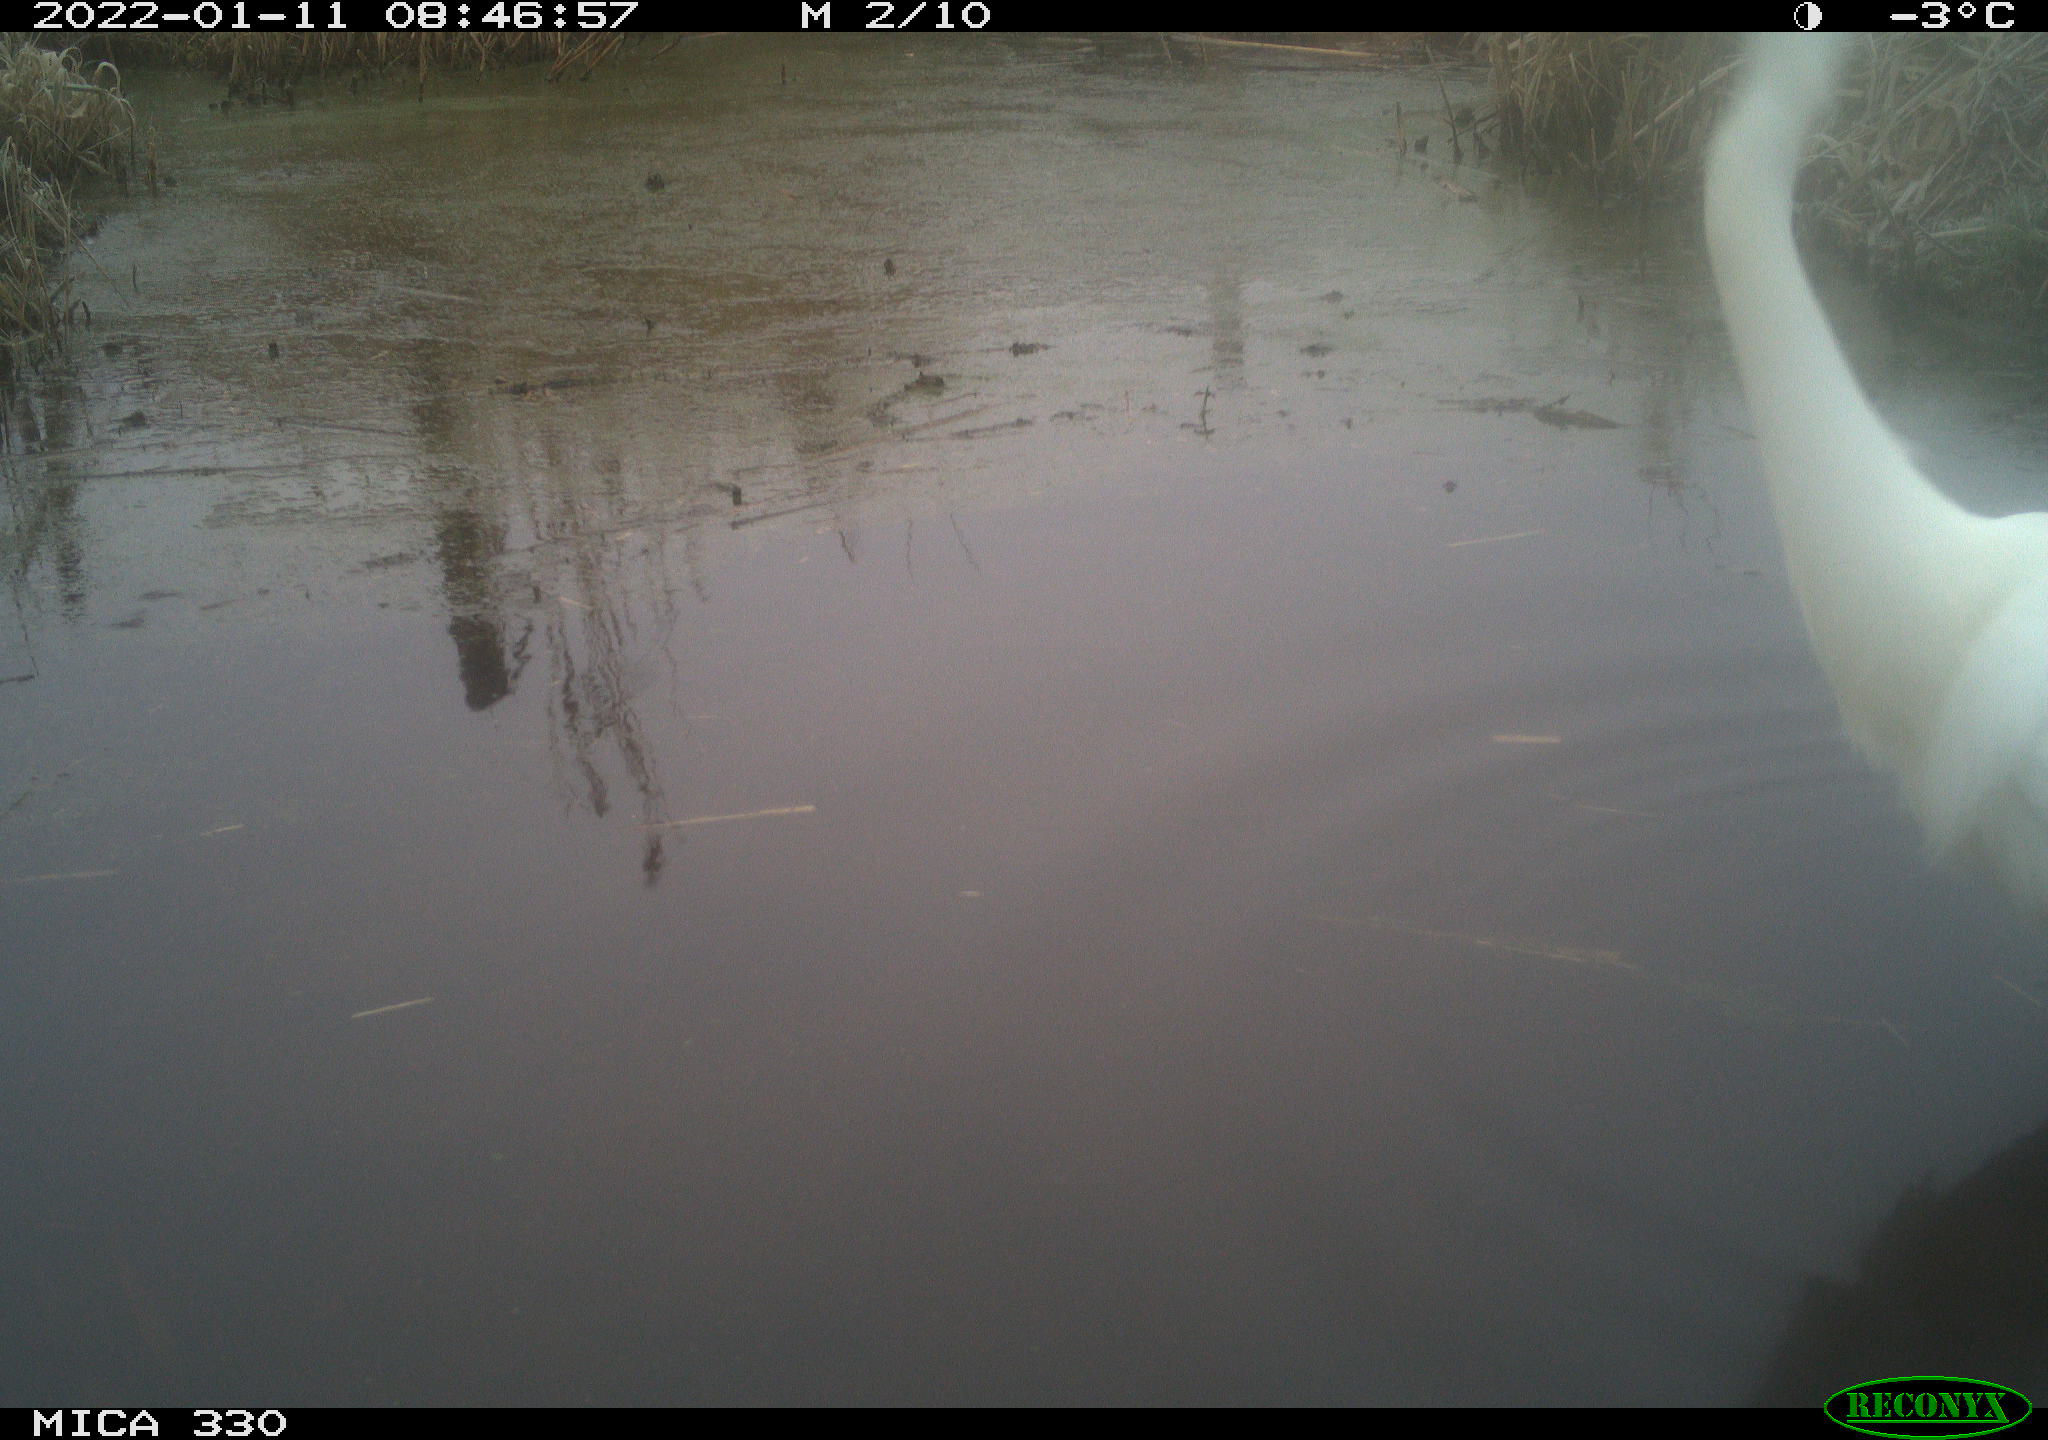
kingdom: Animalia
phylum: Chordata
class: Aves
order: Pelecaniformes
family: Ardeidae
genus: Ardea
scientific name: Ardea alba
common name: Great egret
